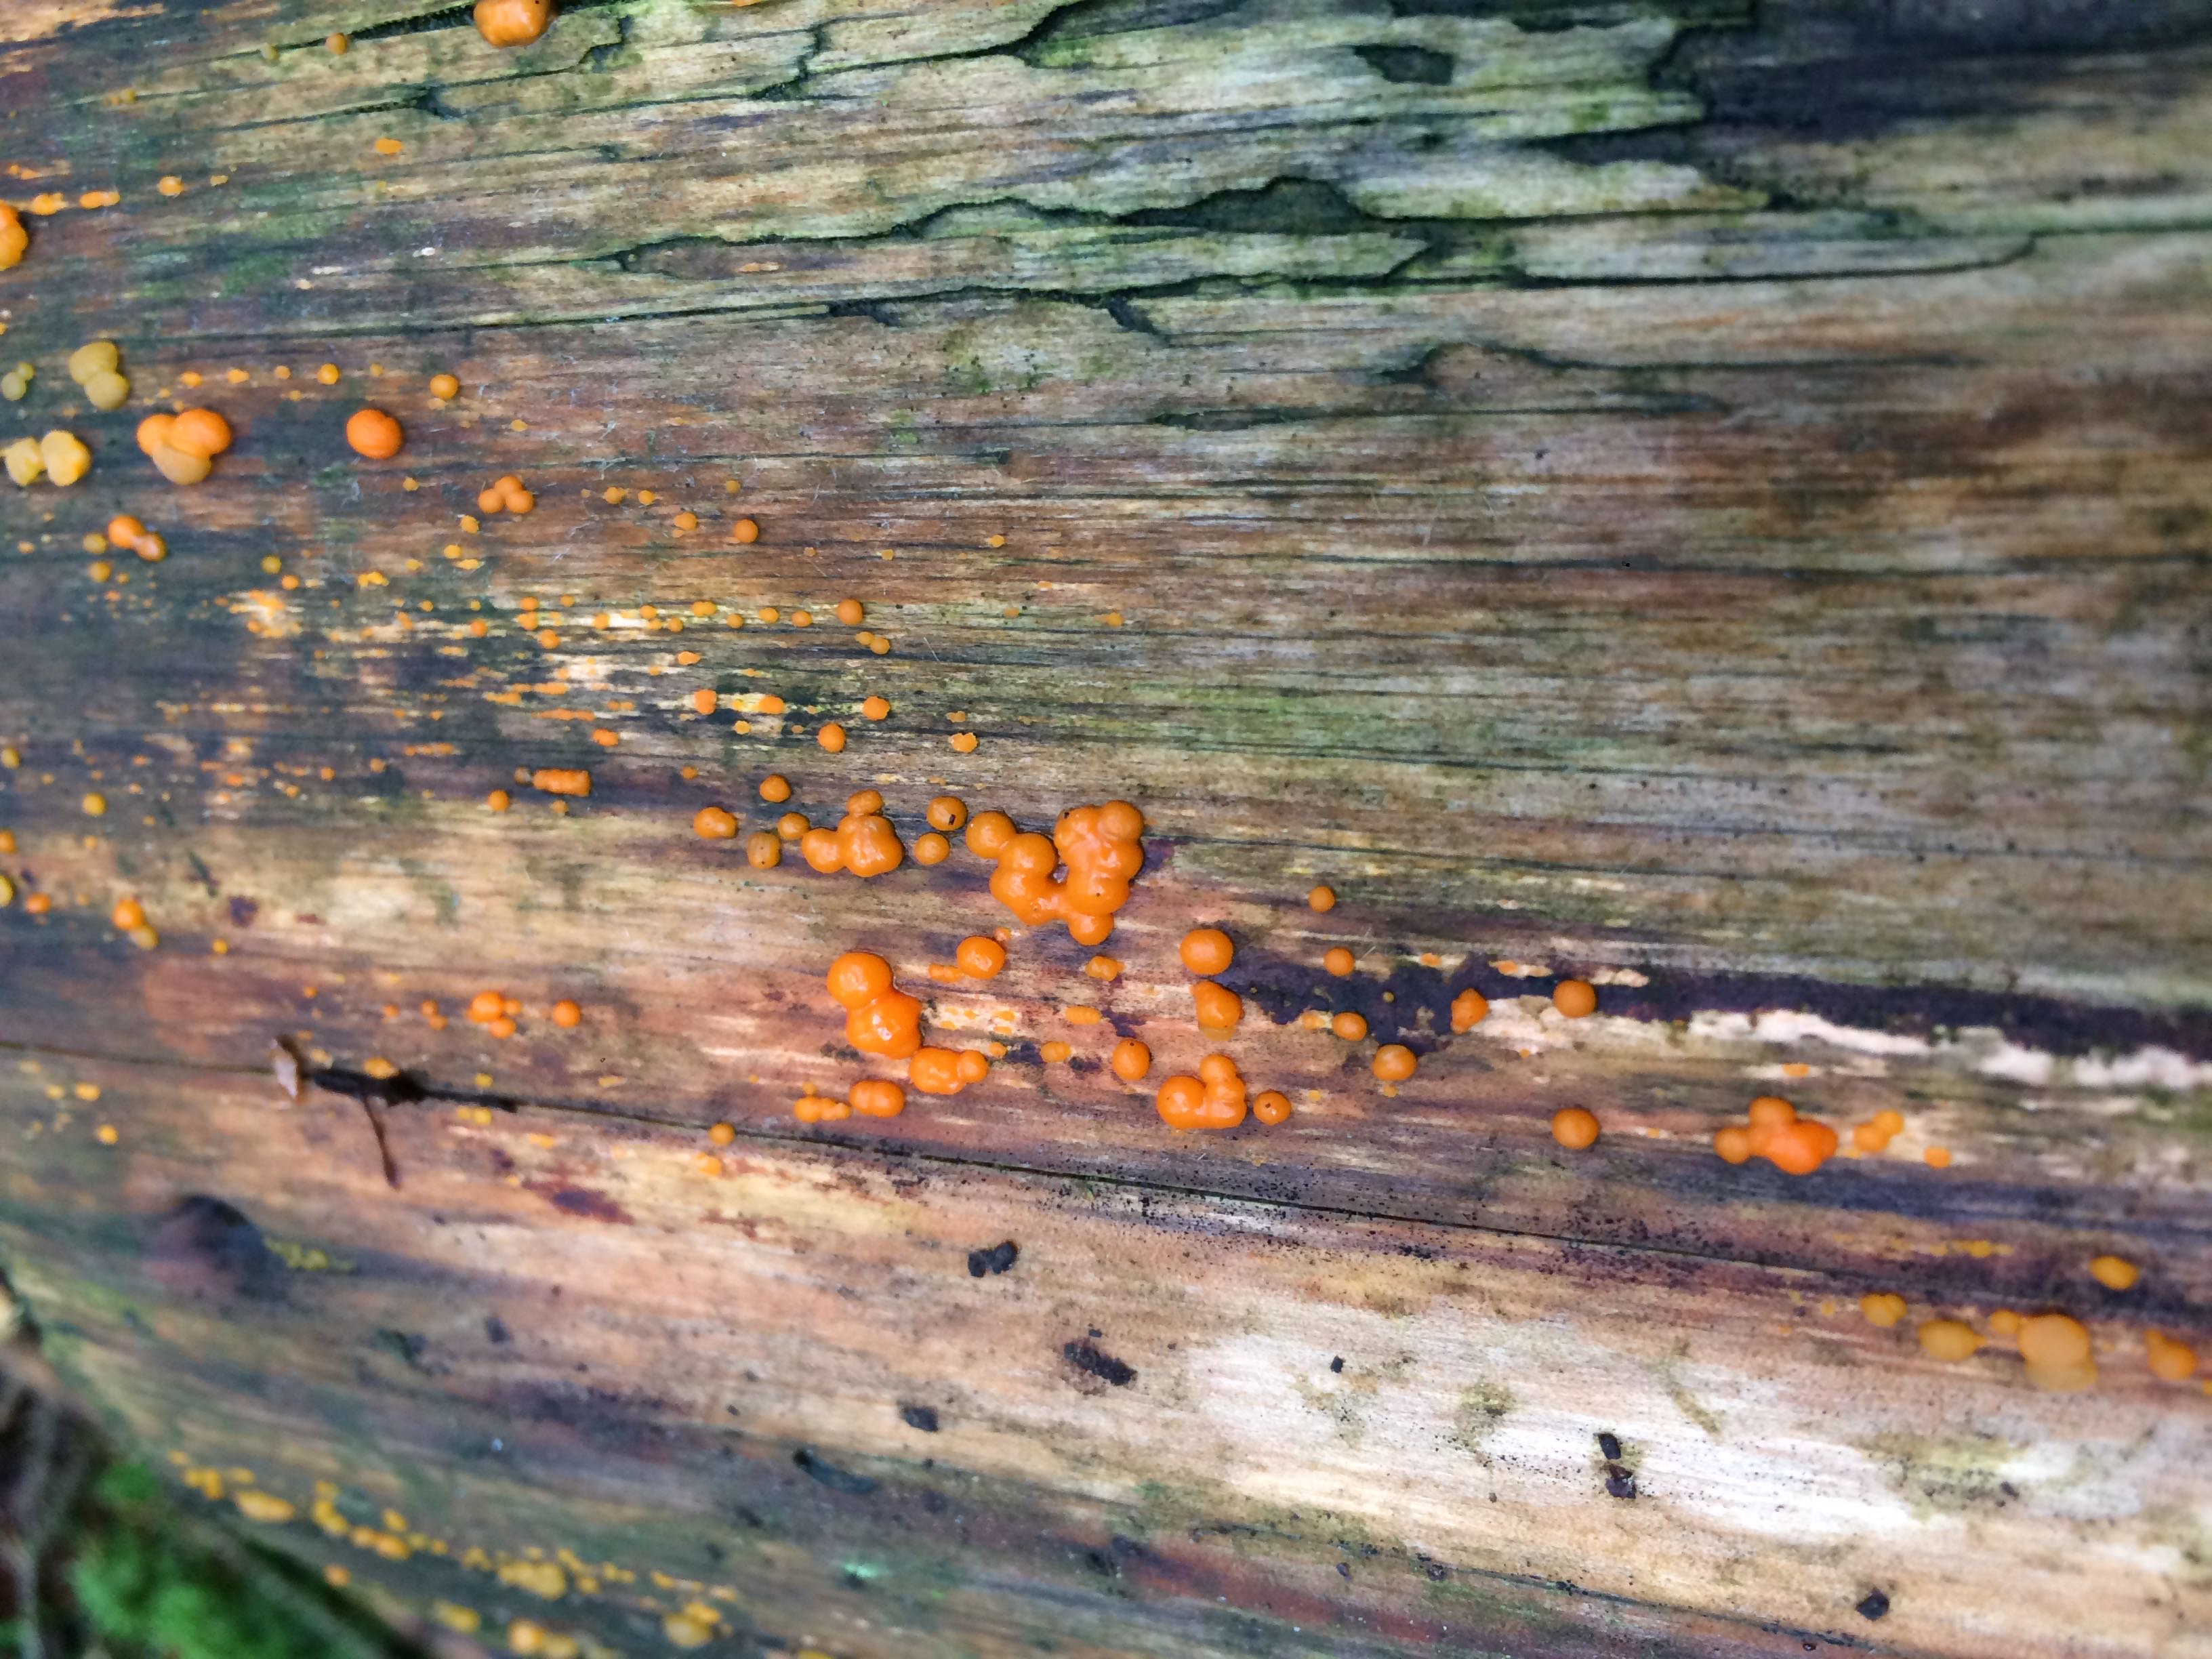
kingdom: Fungi
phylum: Basidiomycota
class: Dacrymycetes
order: Dacrymycetales
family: Dacrymycetaceae
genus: Dacrymyces
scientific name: Dacrymyces stillatus
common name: almindelig tåresvamp
